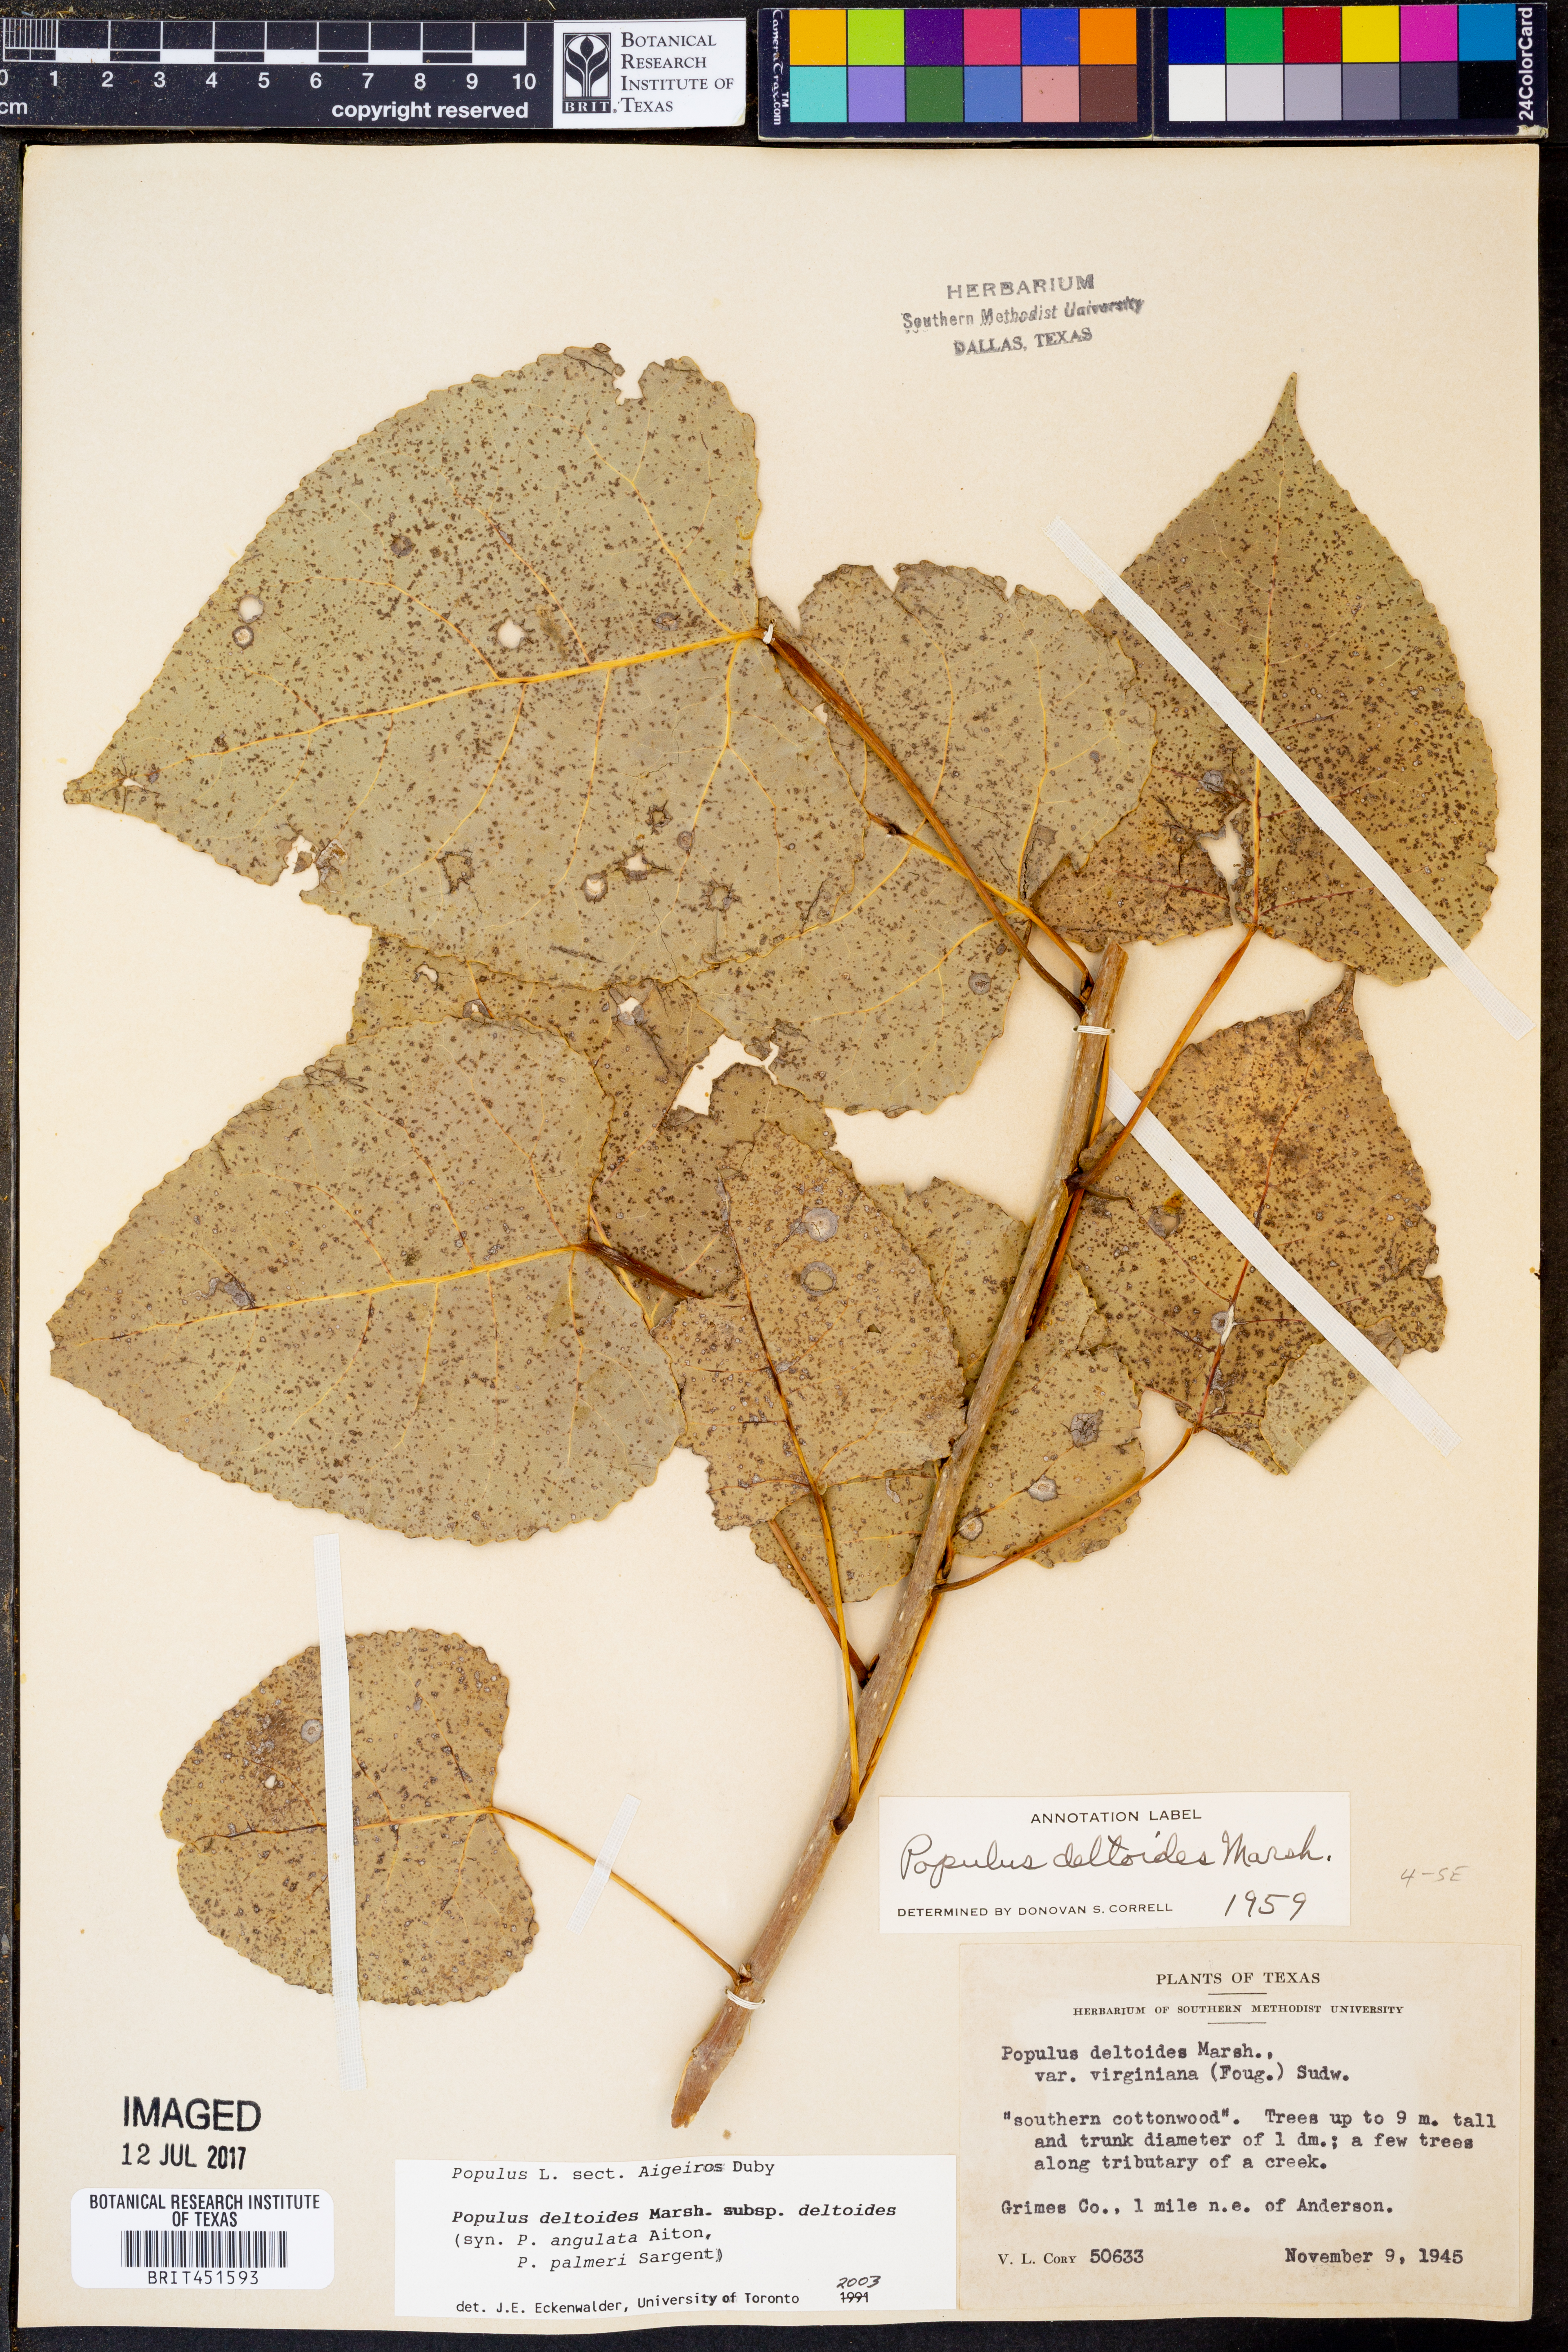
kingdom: Plantae
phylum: Tracheophyta
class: Magnoliopsida
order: Malpighiales
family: Salicaceae
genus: Populus
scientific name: Populus deltoides
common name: Eastern cottonwood
